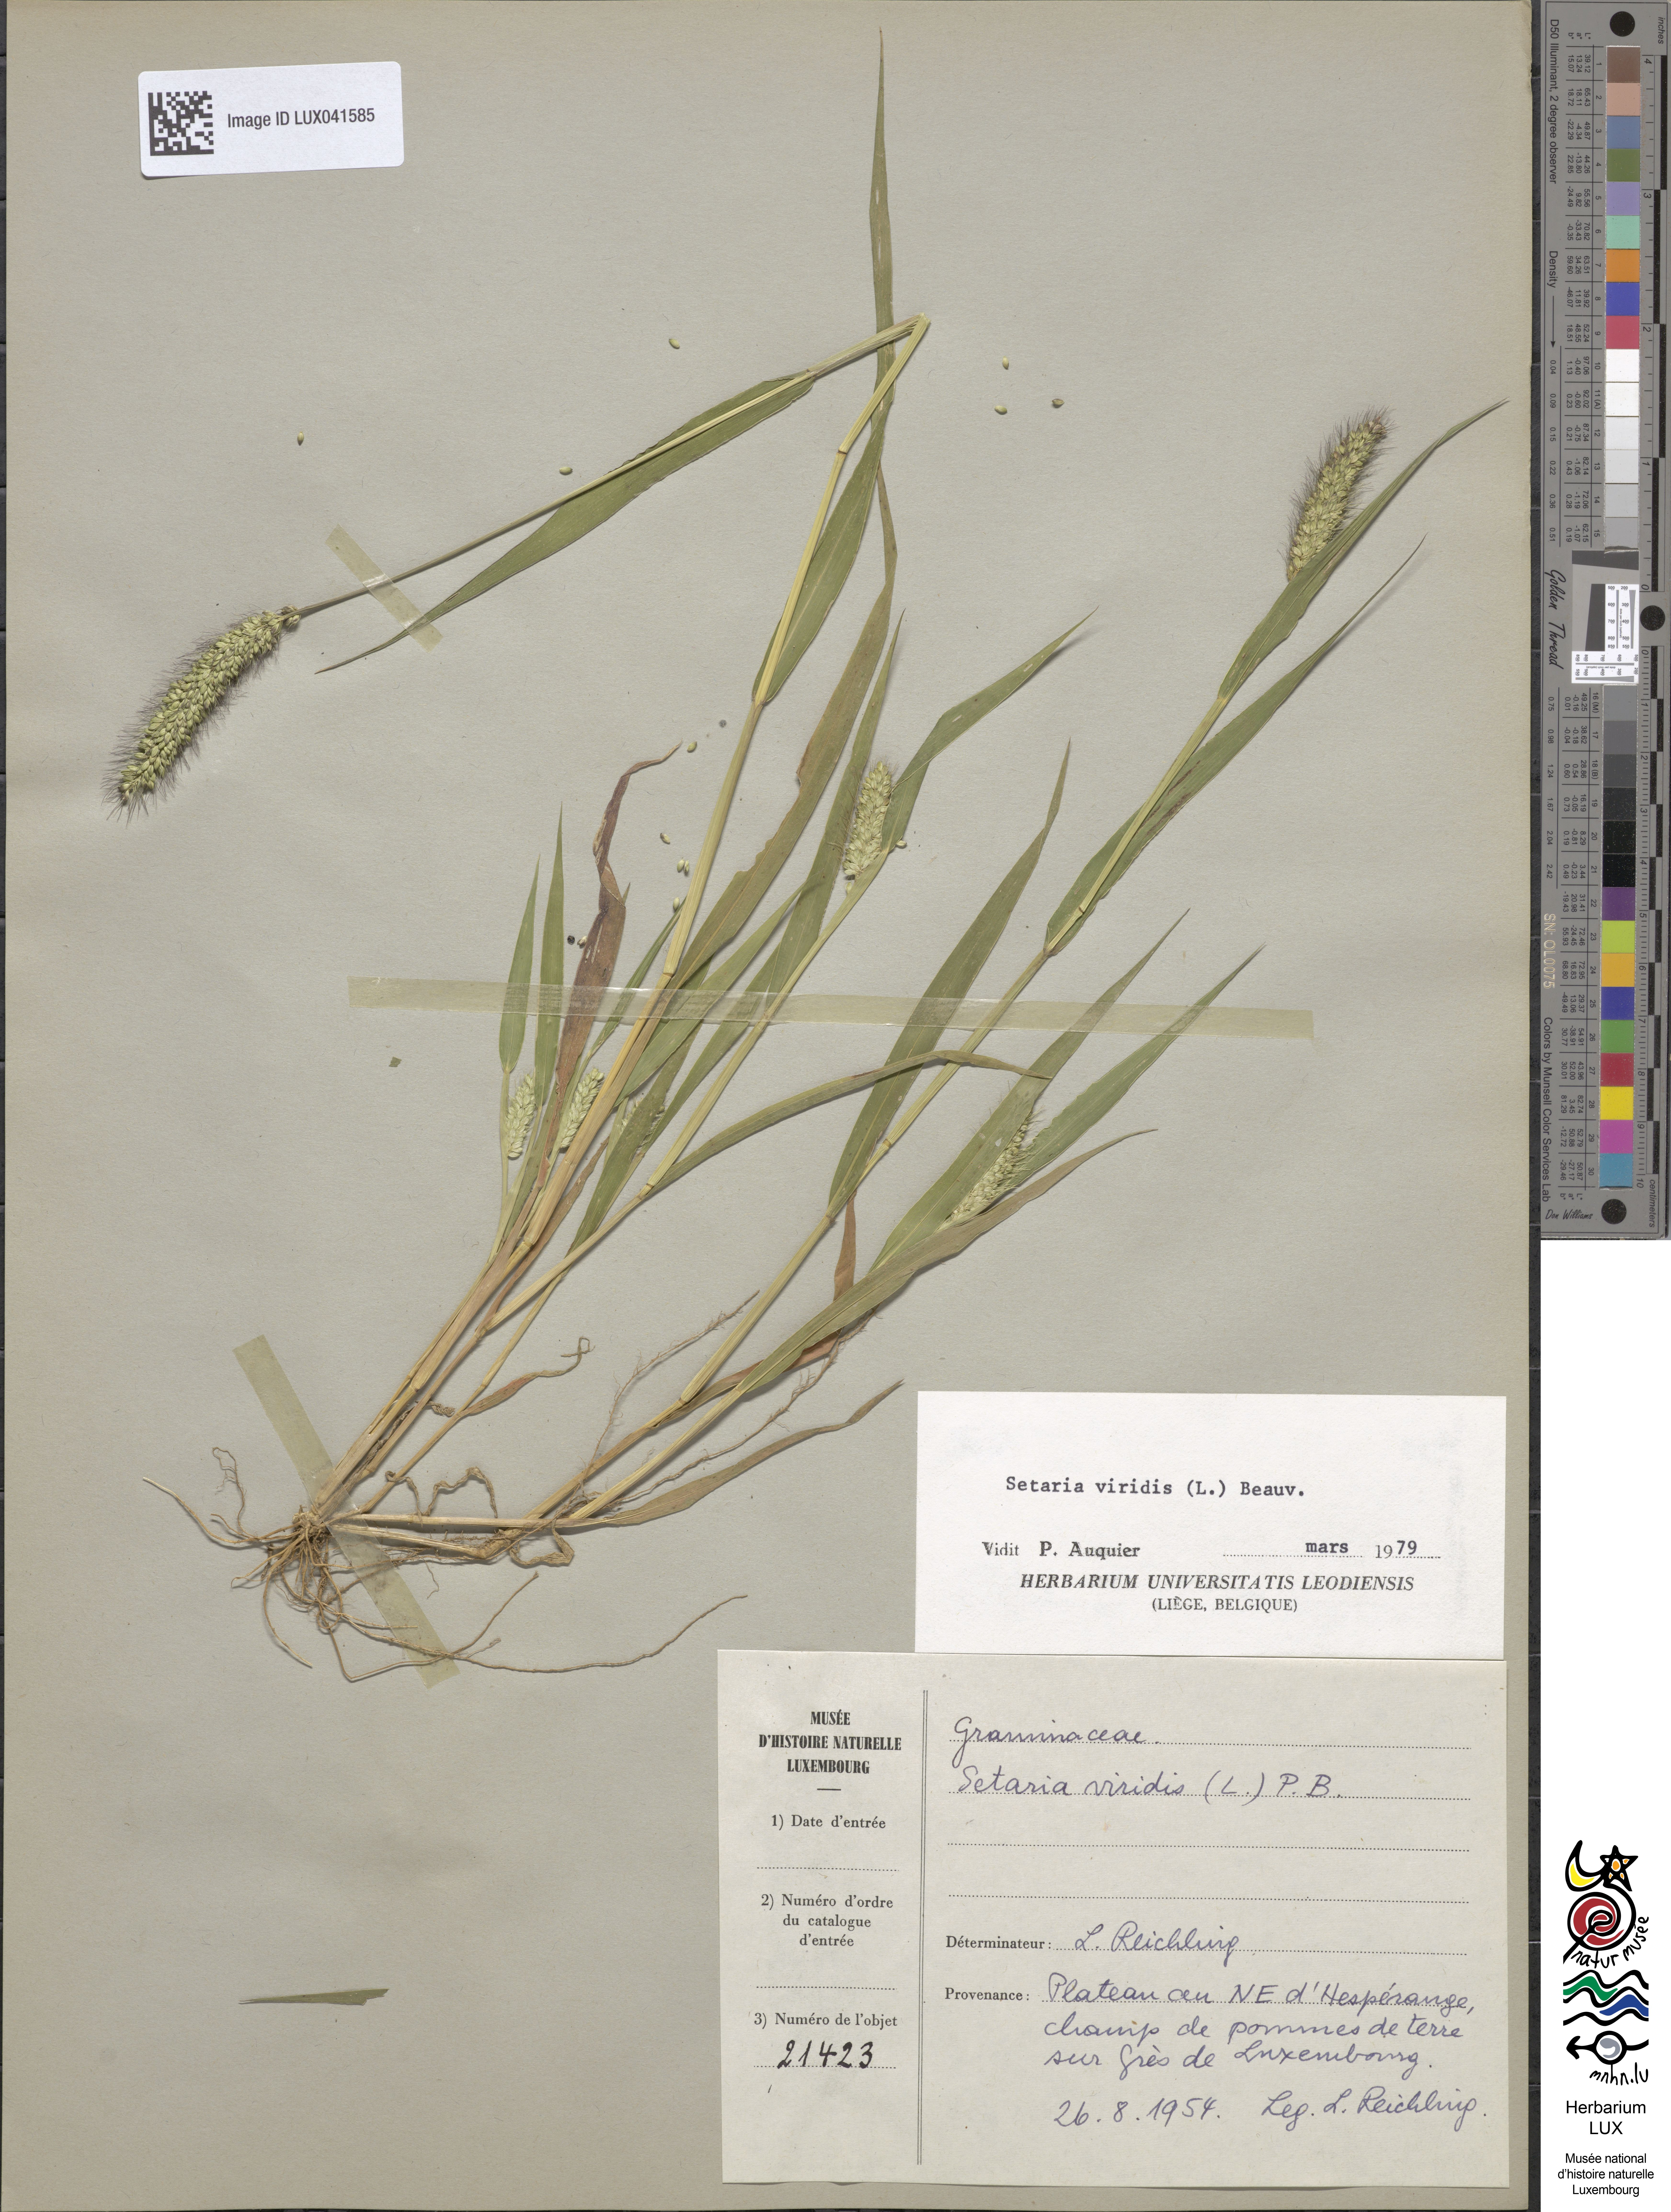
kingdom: Plantae
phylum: Tracheophyta
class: Liliopsida
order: Poales
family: Poaceae
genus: Setaria
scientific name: Setaria viridis
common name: Green bristlegrass
